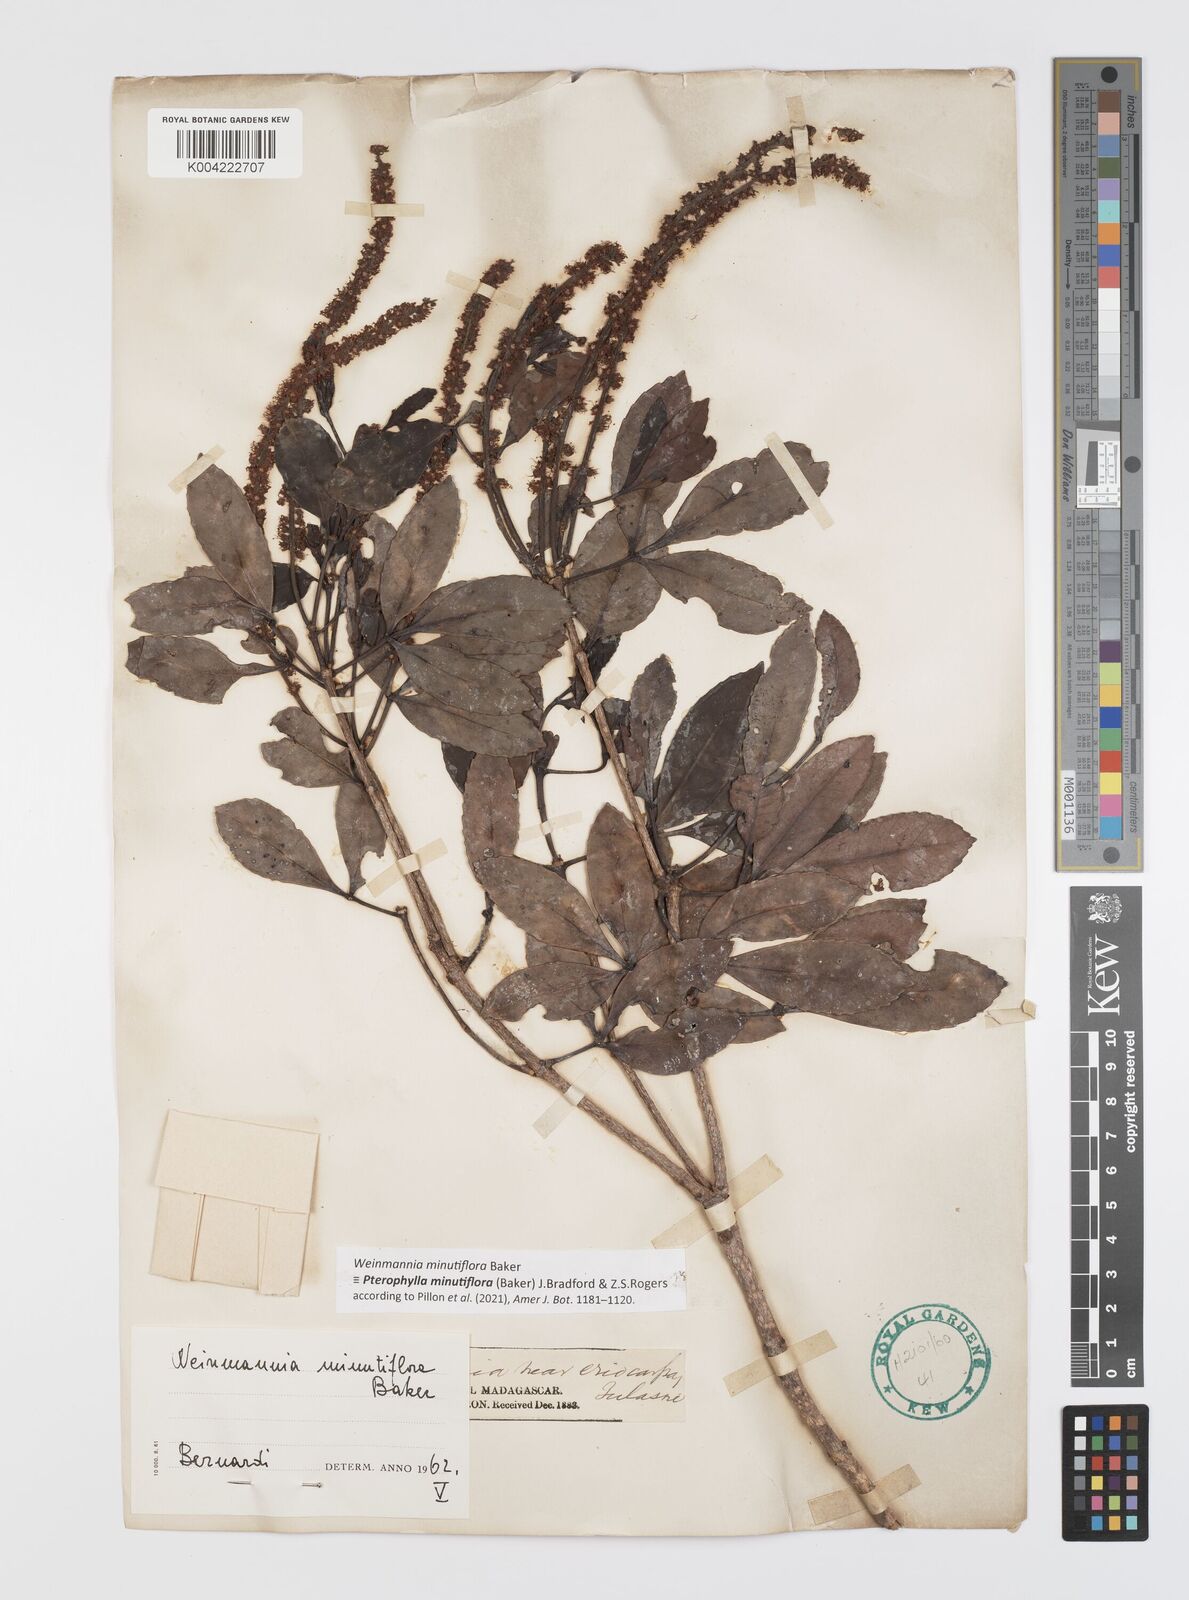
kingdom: Plantae
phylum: Tracheophyta
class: Magnoliopsida
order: Oxalidales
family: Cunoniaceae
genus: Pterophylla
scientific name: Pterophylla
